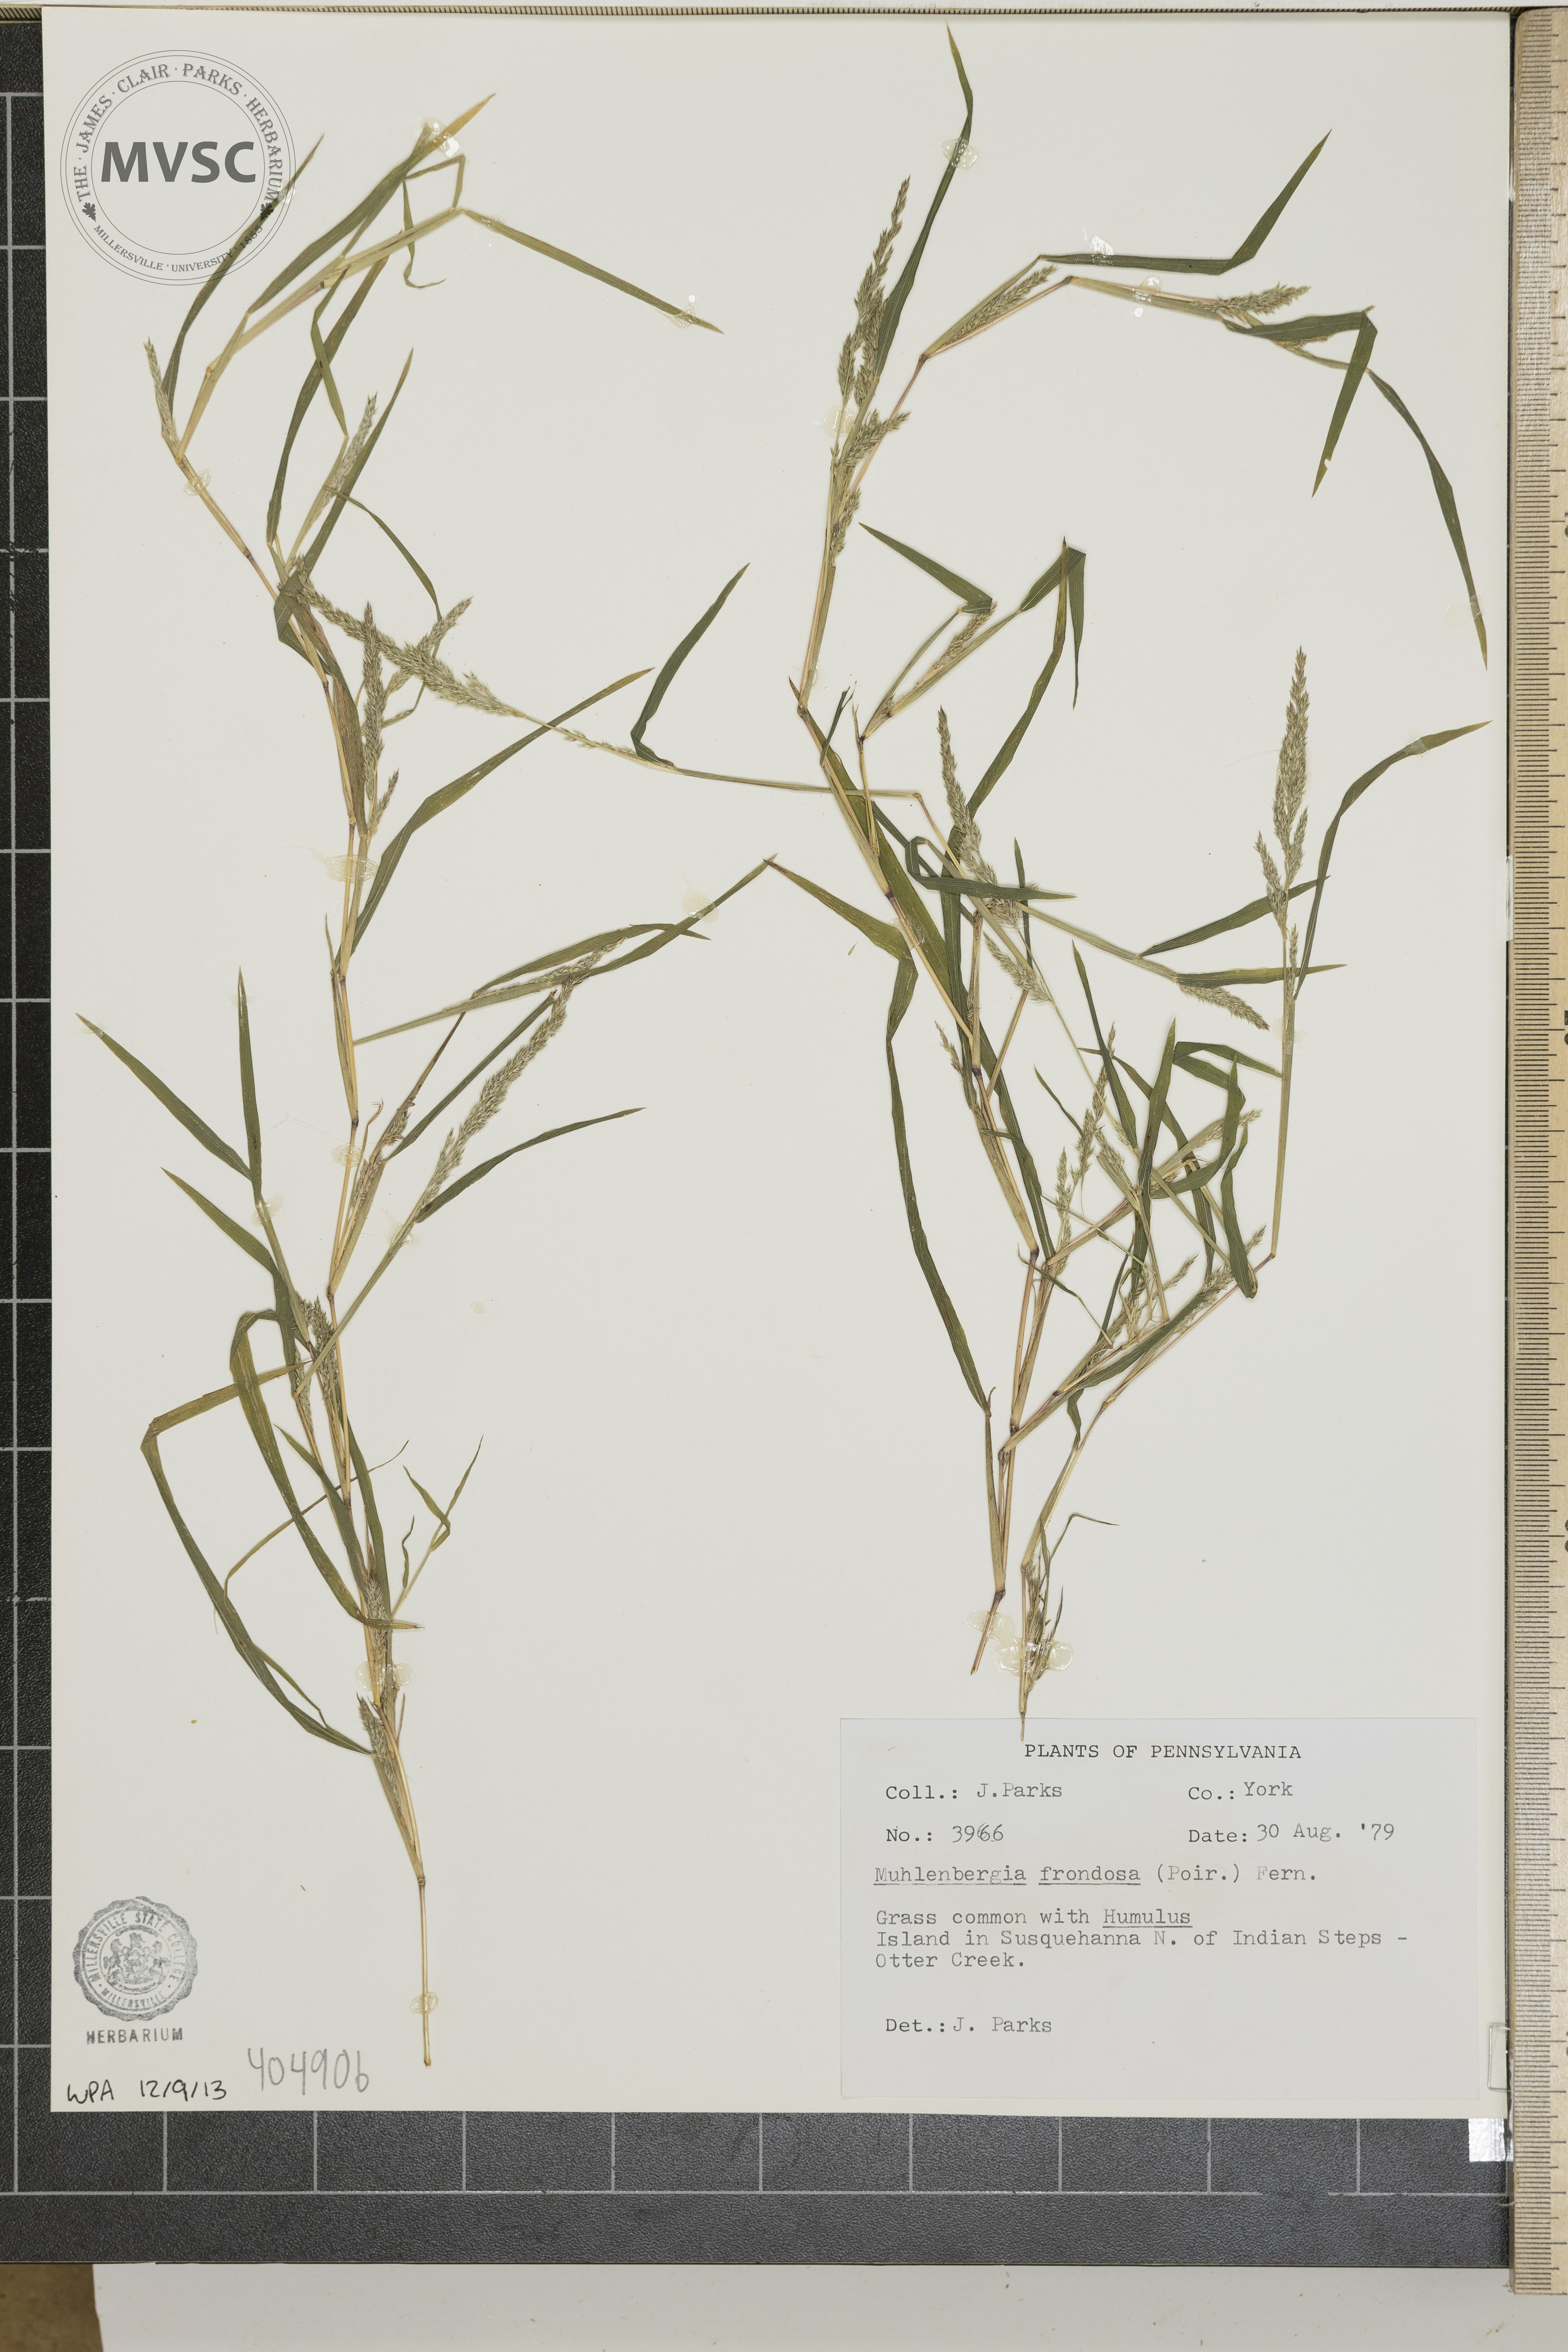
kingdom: Plantae
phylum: Tracheophyta
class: Liliopsida
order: Poales
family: Poaceae
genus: Muhlenbergia
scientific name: Muhlenbergia frondosa
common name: Common satingrass
